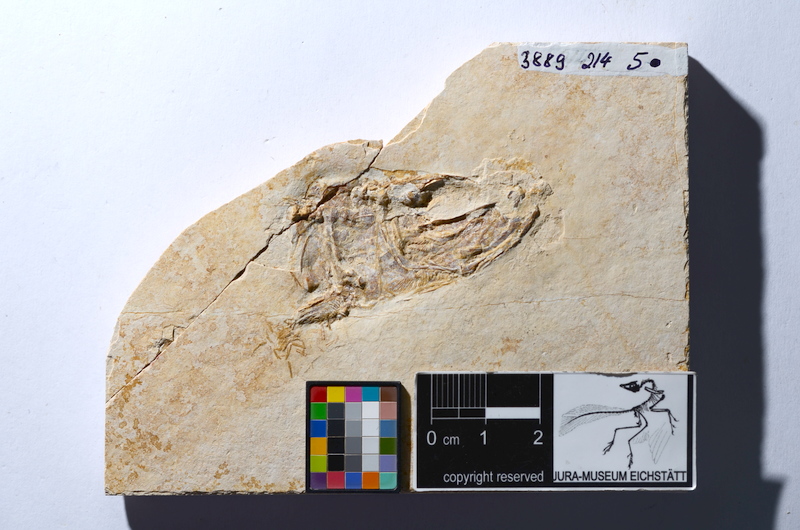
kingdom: Animalia
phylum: Chordata
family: Ascalaboidae
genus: Tharsis
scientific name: Tharsis dubius
